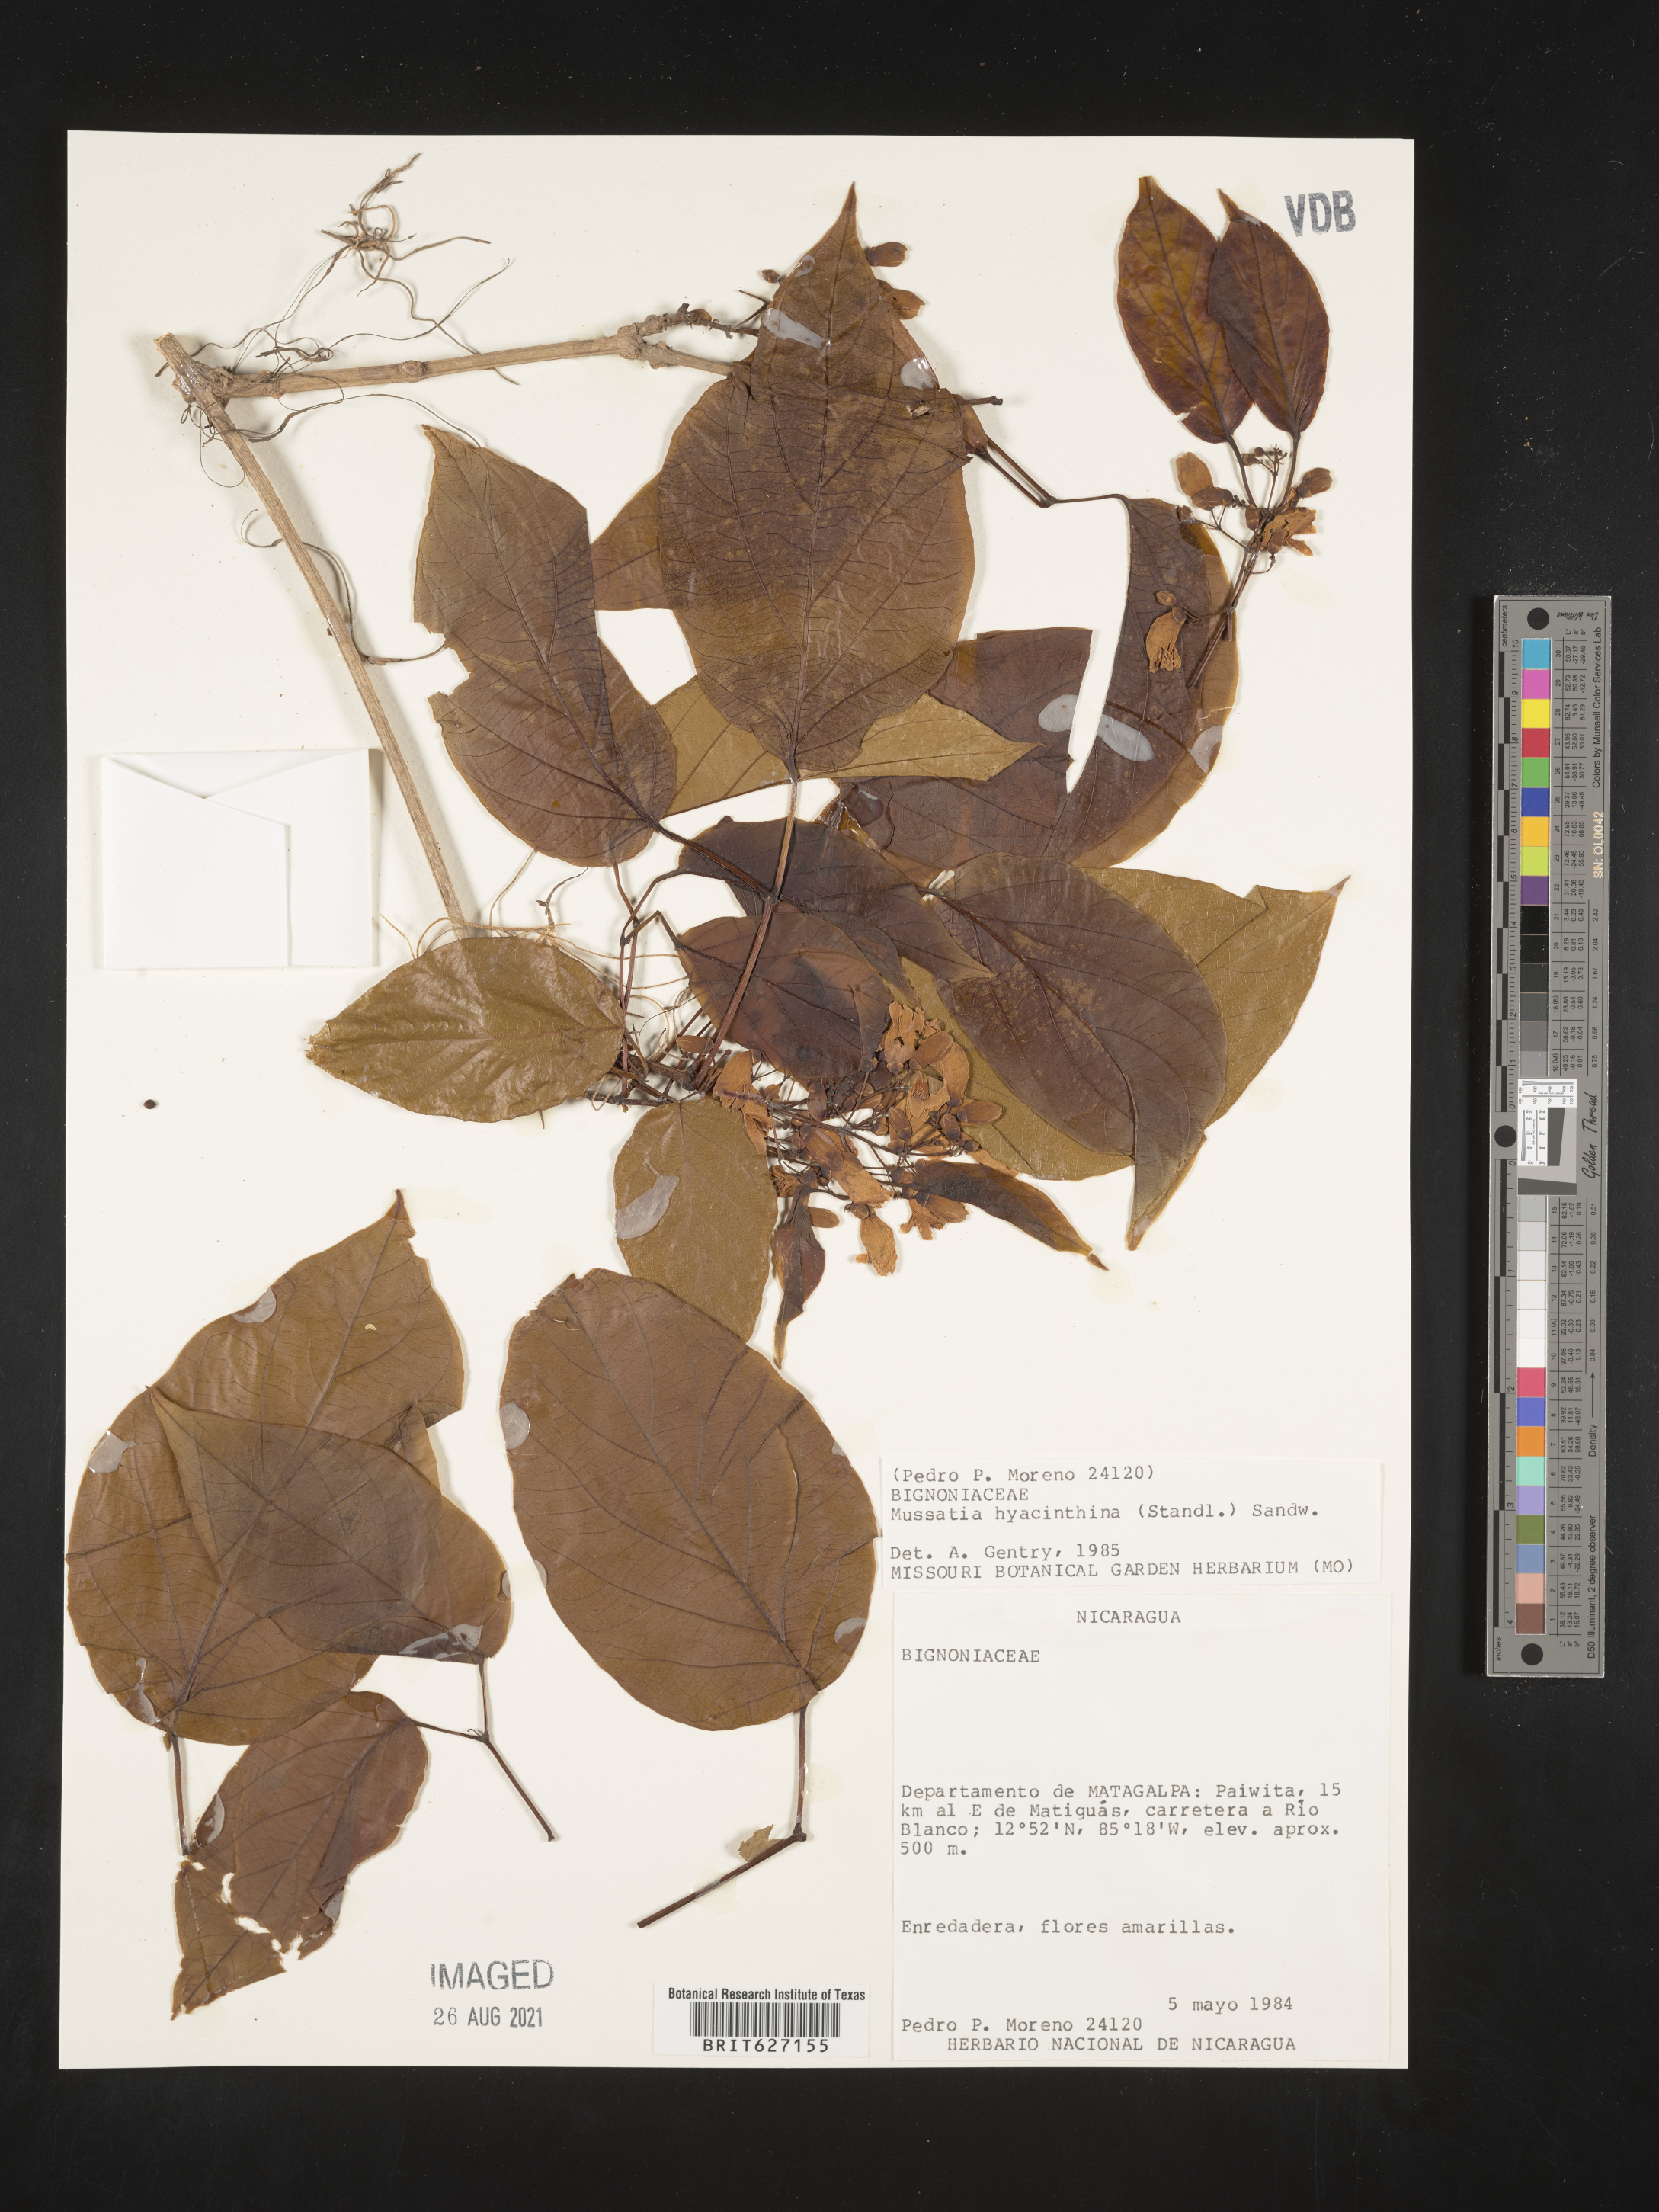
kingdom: Plantae
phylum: Tracheophyta
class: Magnoliopsida
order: Lamiales
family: Bignoniaceae
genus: Bignonia
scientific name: Bignonia hyacinthina
